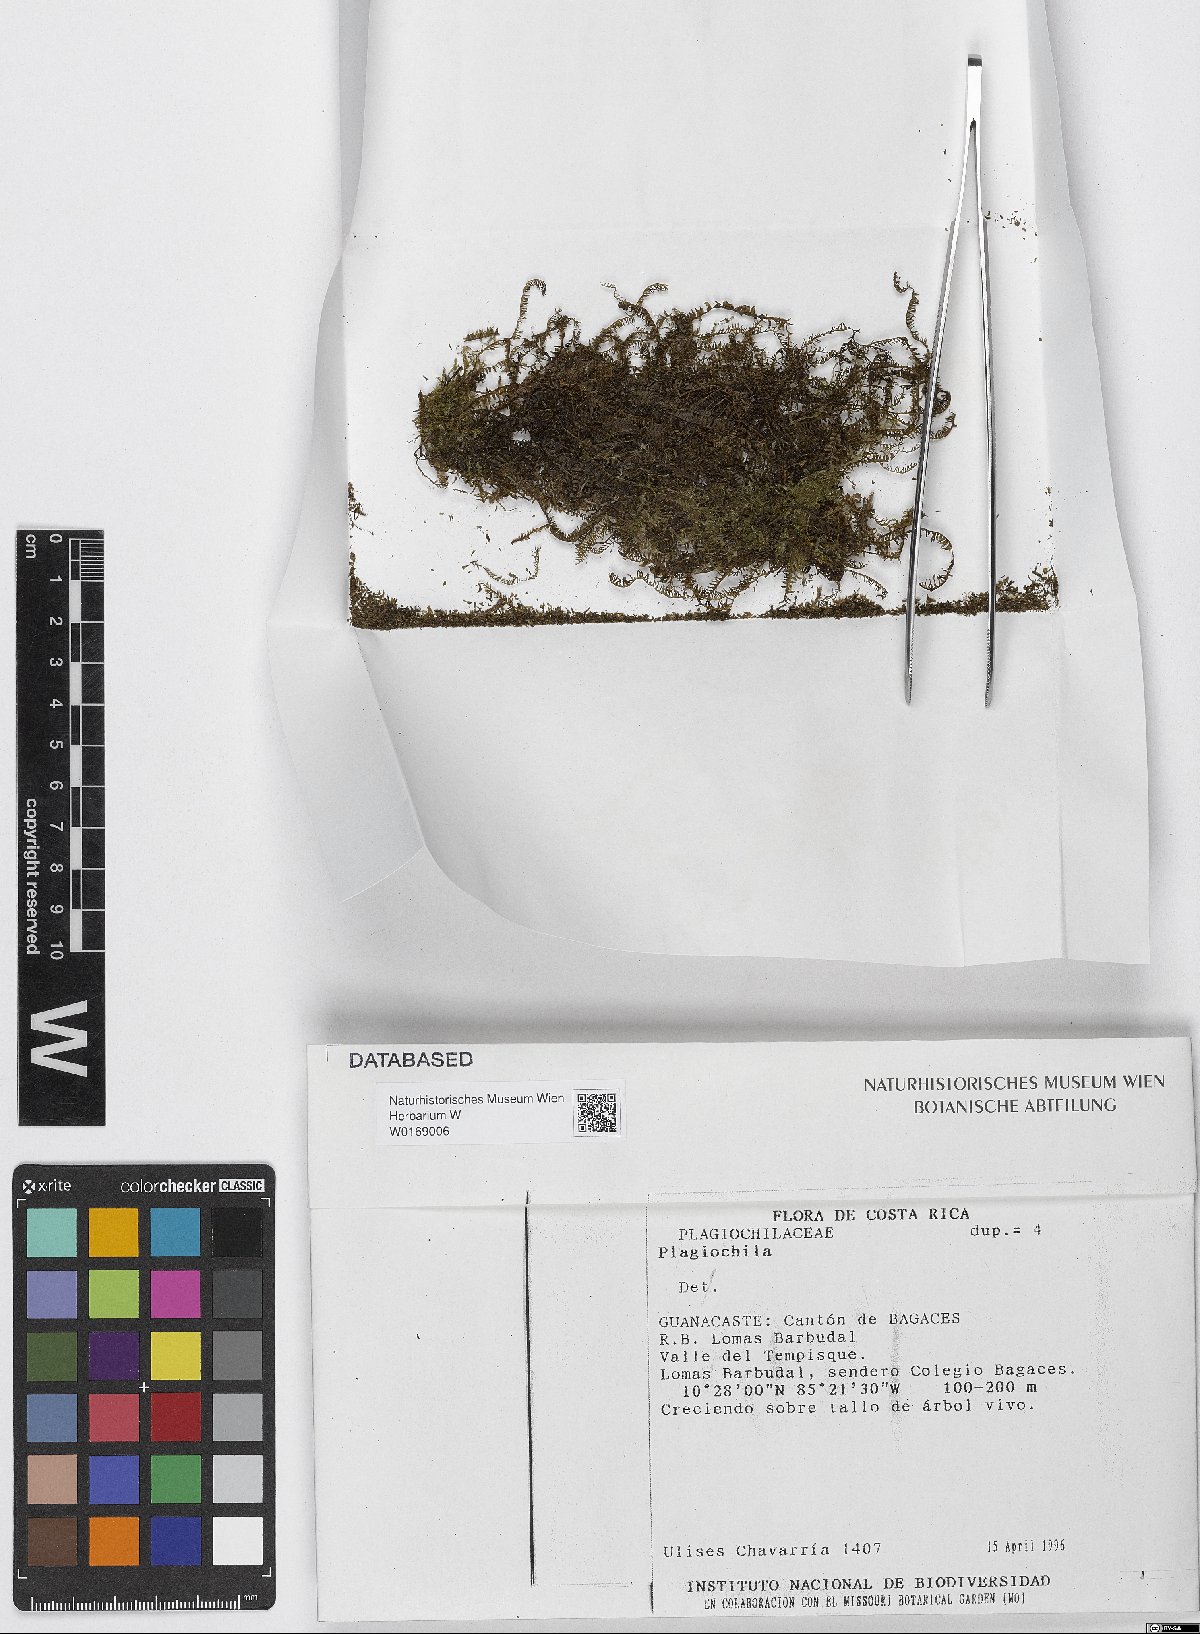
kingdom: Plantae
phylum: Marchantiophyta
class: Jungermanniopsida
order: Jungermanniales
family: Plagiochilaceae
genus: Plagiochila
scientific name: Plagiochila
